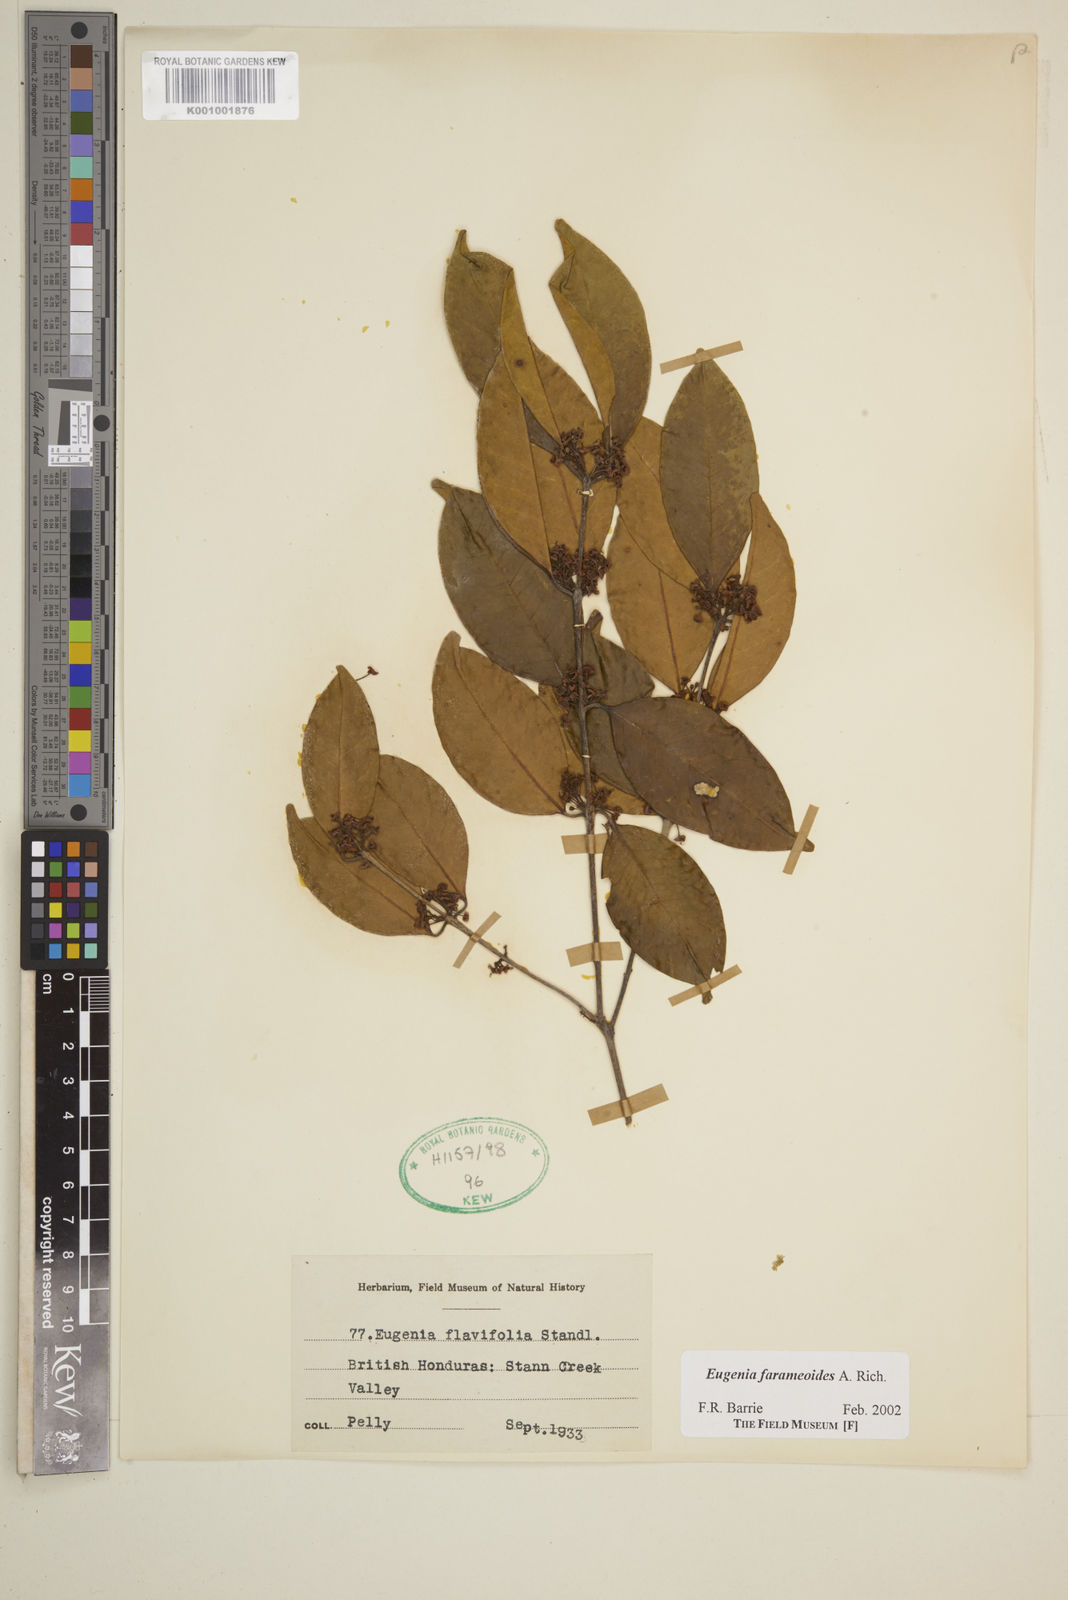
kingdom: Plantae
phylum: Tracheophyta
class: Magnoliopsida
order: Myrtales
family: Myrtaceae
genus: Eugenia
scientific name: Eugenia farameoides
